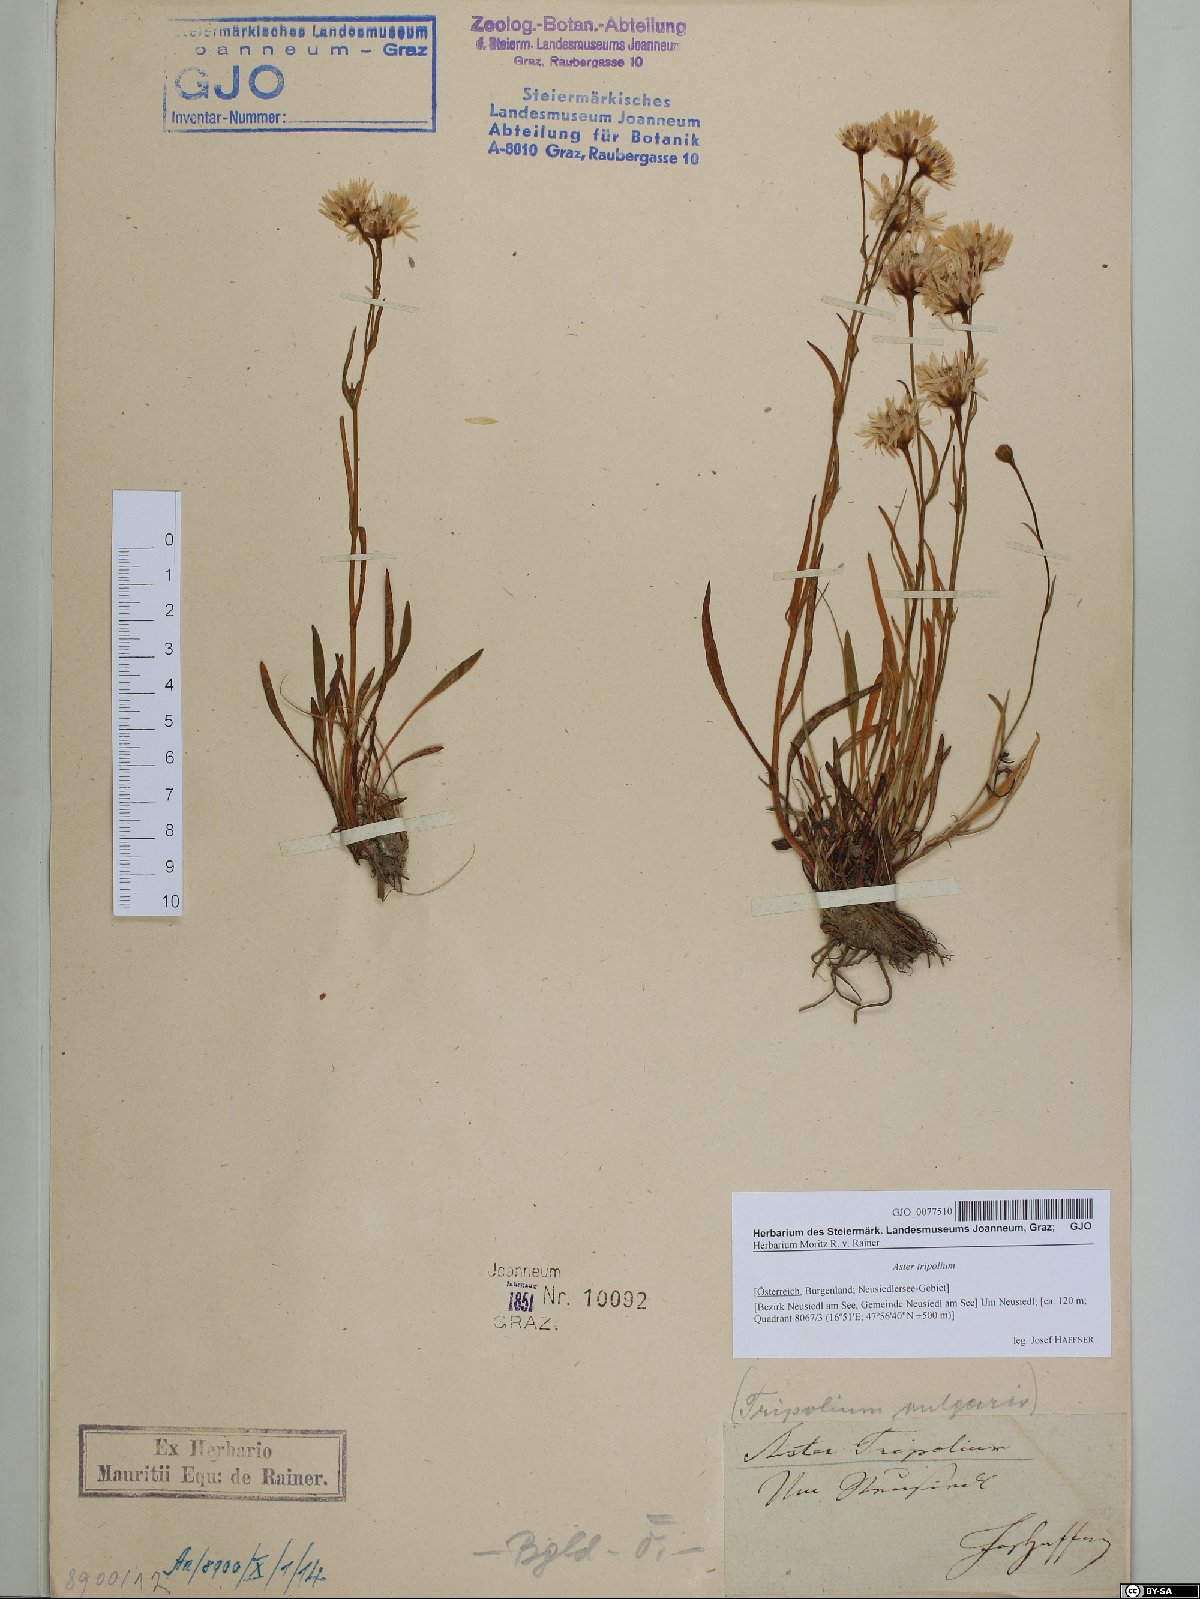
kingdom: Plantae
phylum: Tracheophyta
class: Magnoliopsida
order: Asterales
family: Asteraceae
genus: Tripolium
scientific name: Tripolium pannonicum
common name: Sea aster
